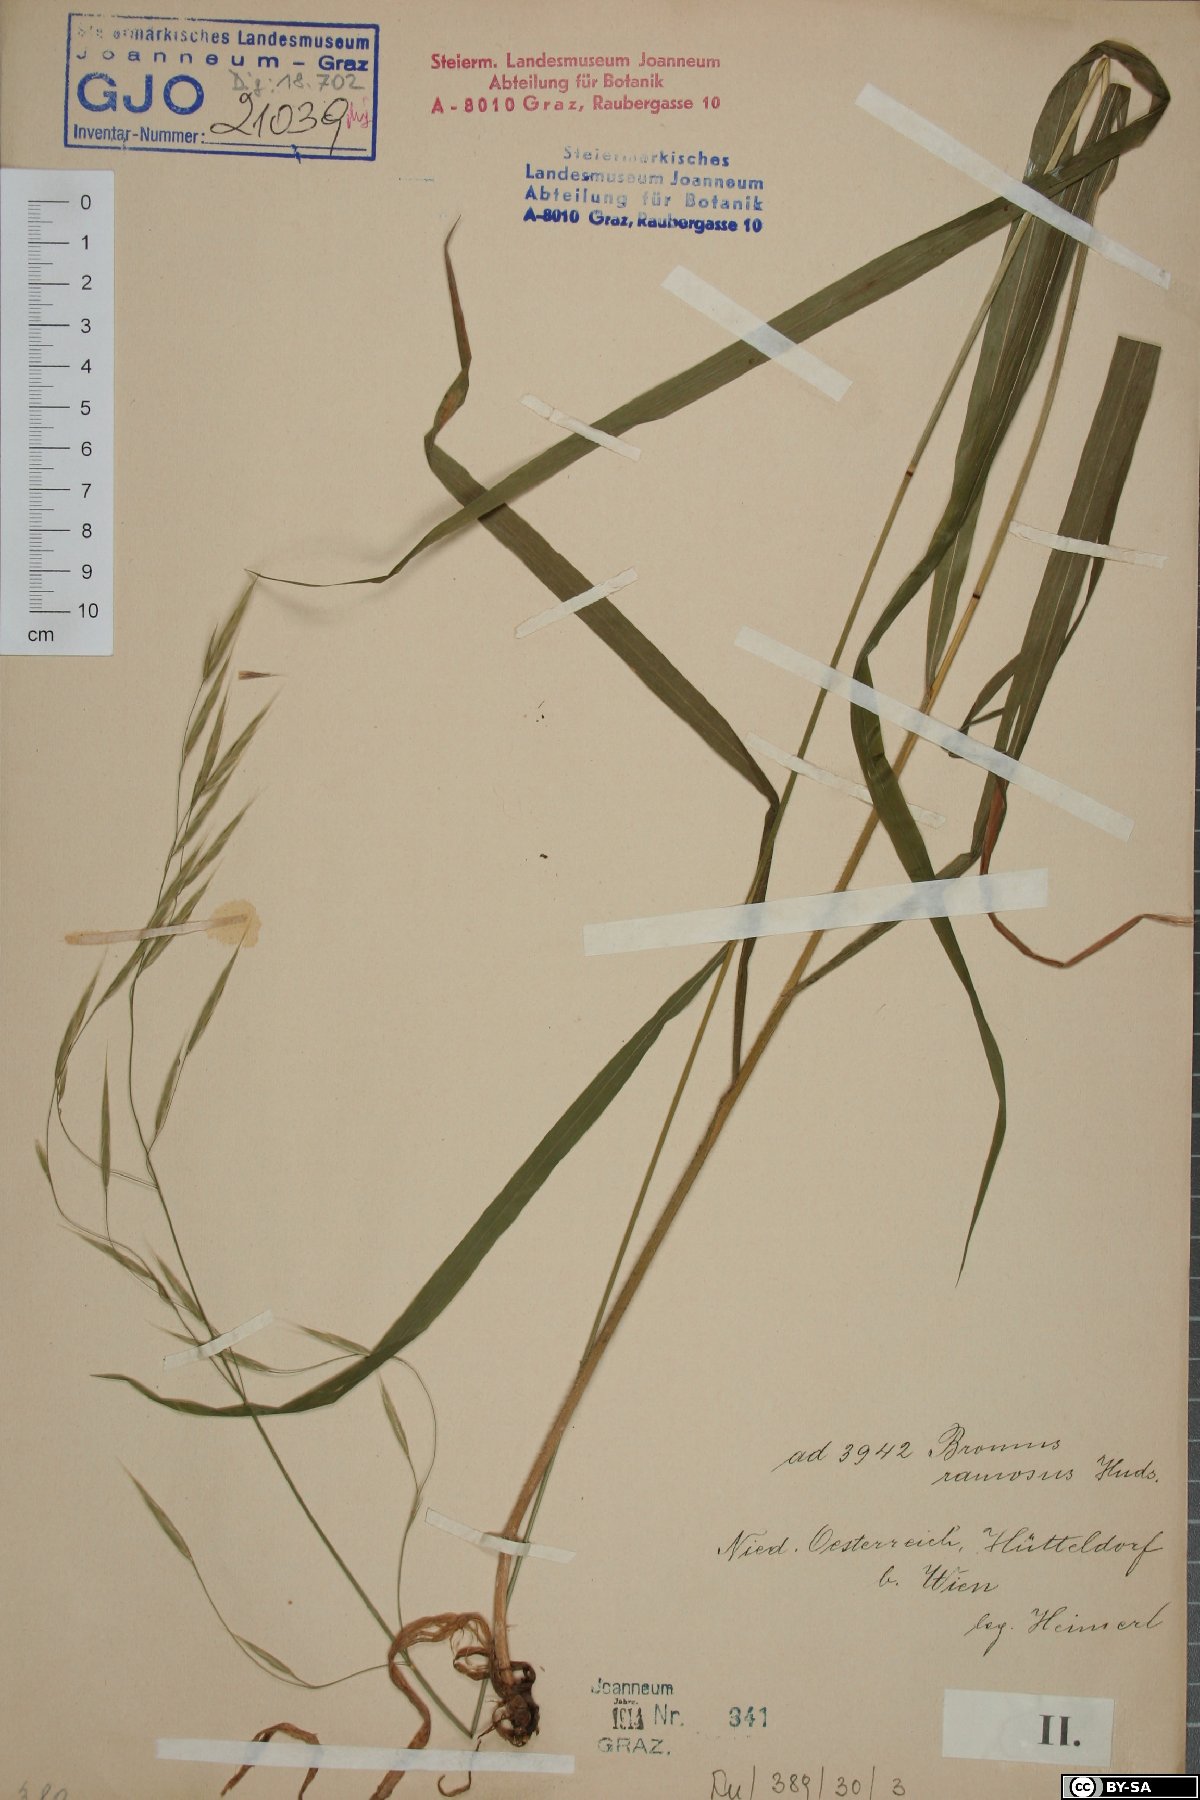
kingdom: Plantae
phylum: Tracheophyta
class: Liliopsida
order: Poales
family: Poaceae
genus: Bromus
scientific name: Bromus ramosus
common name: Hairy brome
